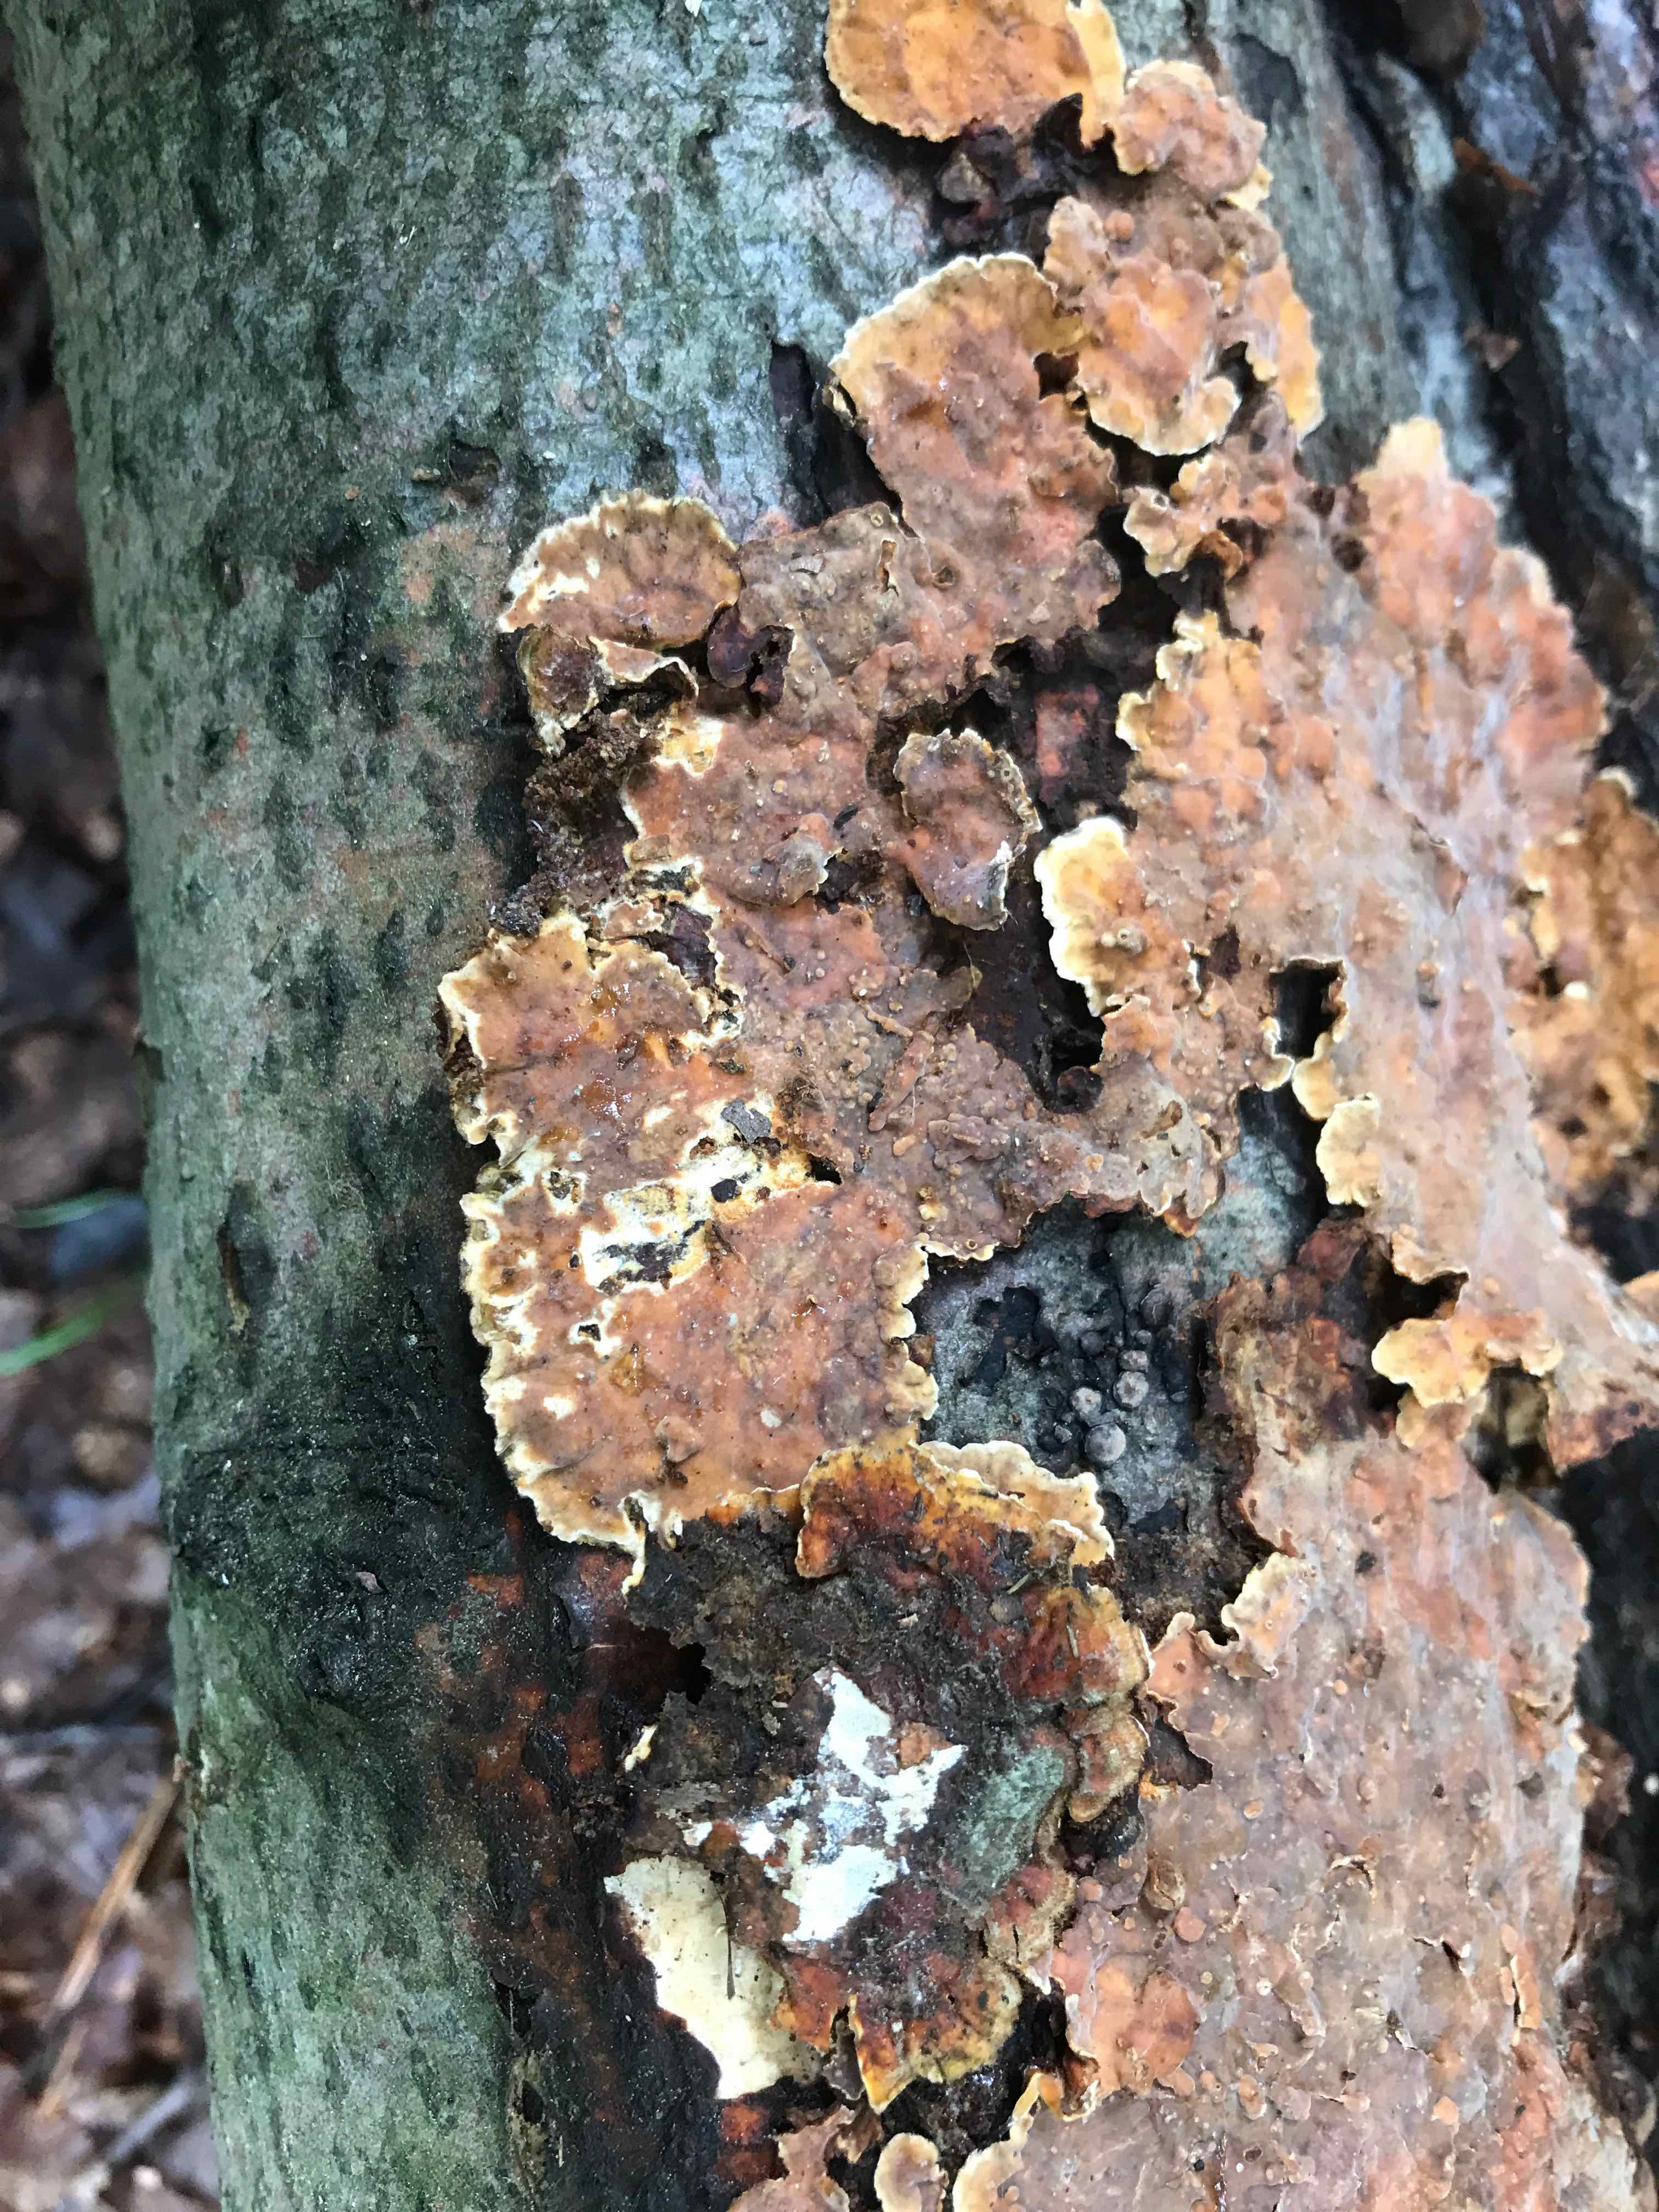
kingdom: Fungi
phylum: Basidiomycota
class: Agaricomycetes
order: Russulales
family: Stereaceae
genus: Stereum
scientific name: Stereum hirsutum
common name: håret lædersvamp
